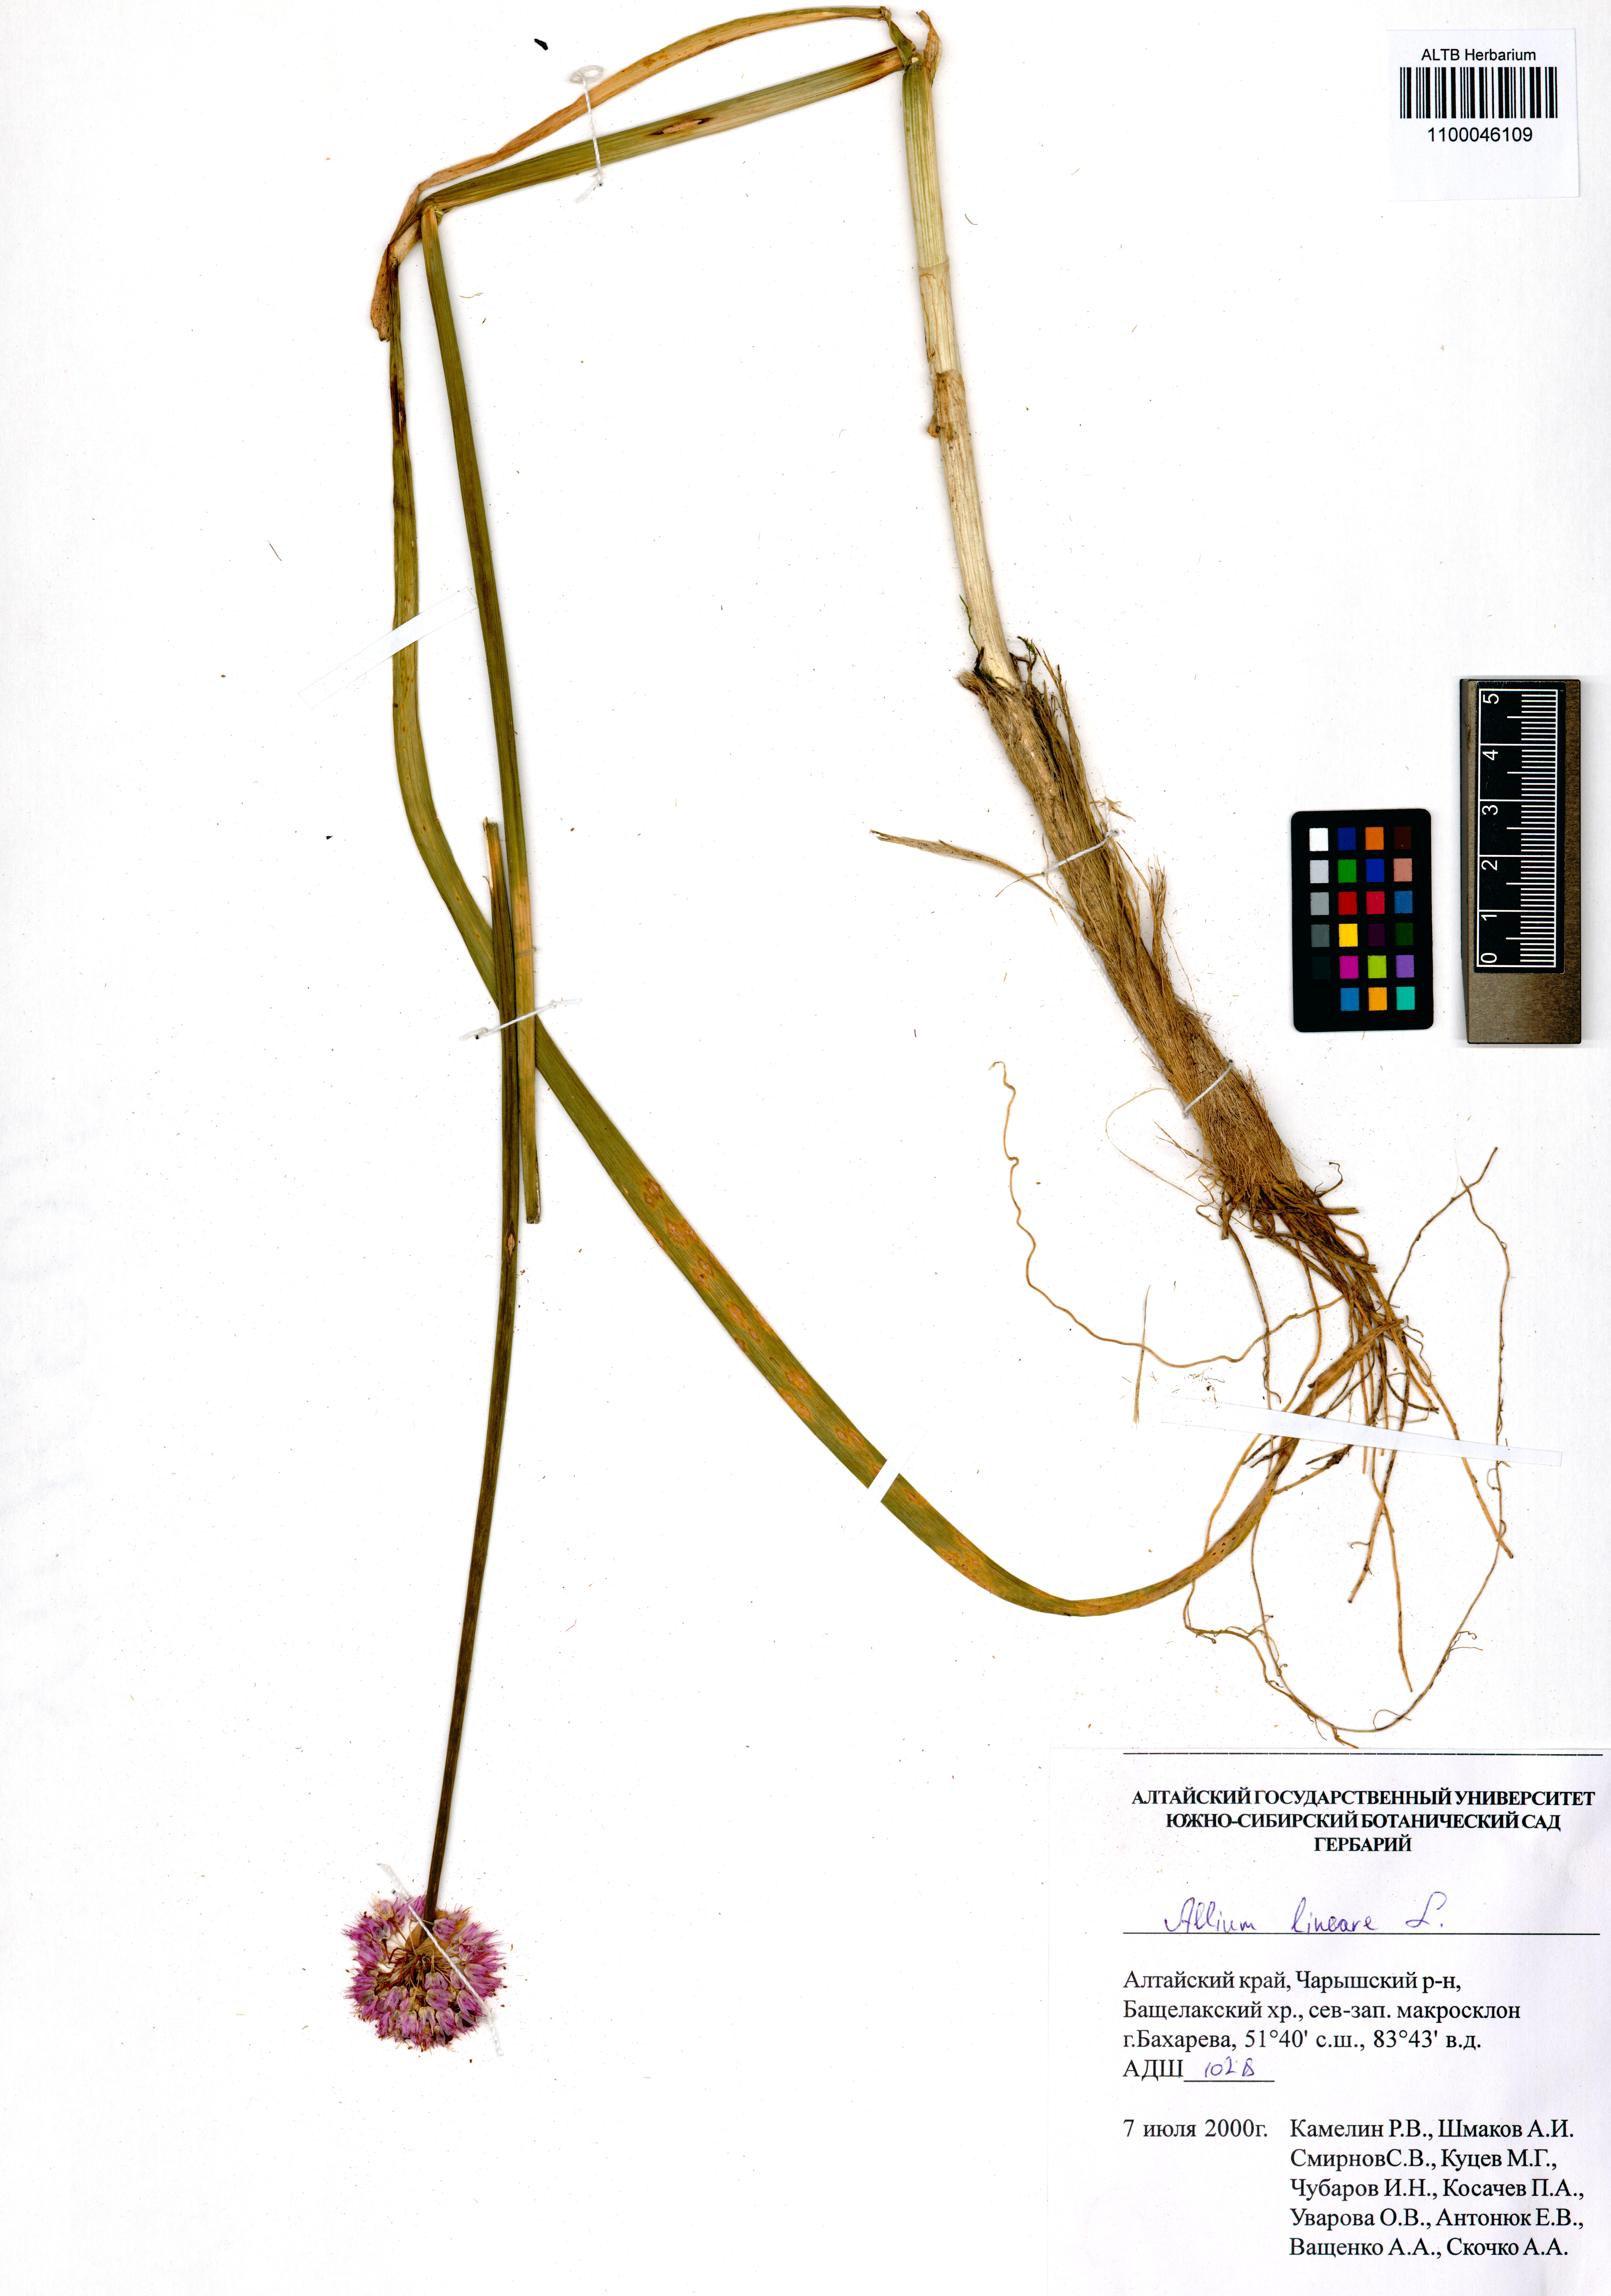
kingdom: Plantae
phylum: Tracheophyta
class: Liliopsida
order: Asparagales
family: Amaryllidaceae
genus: Allium
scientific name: Allium lineare
